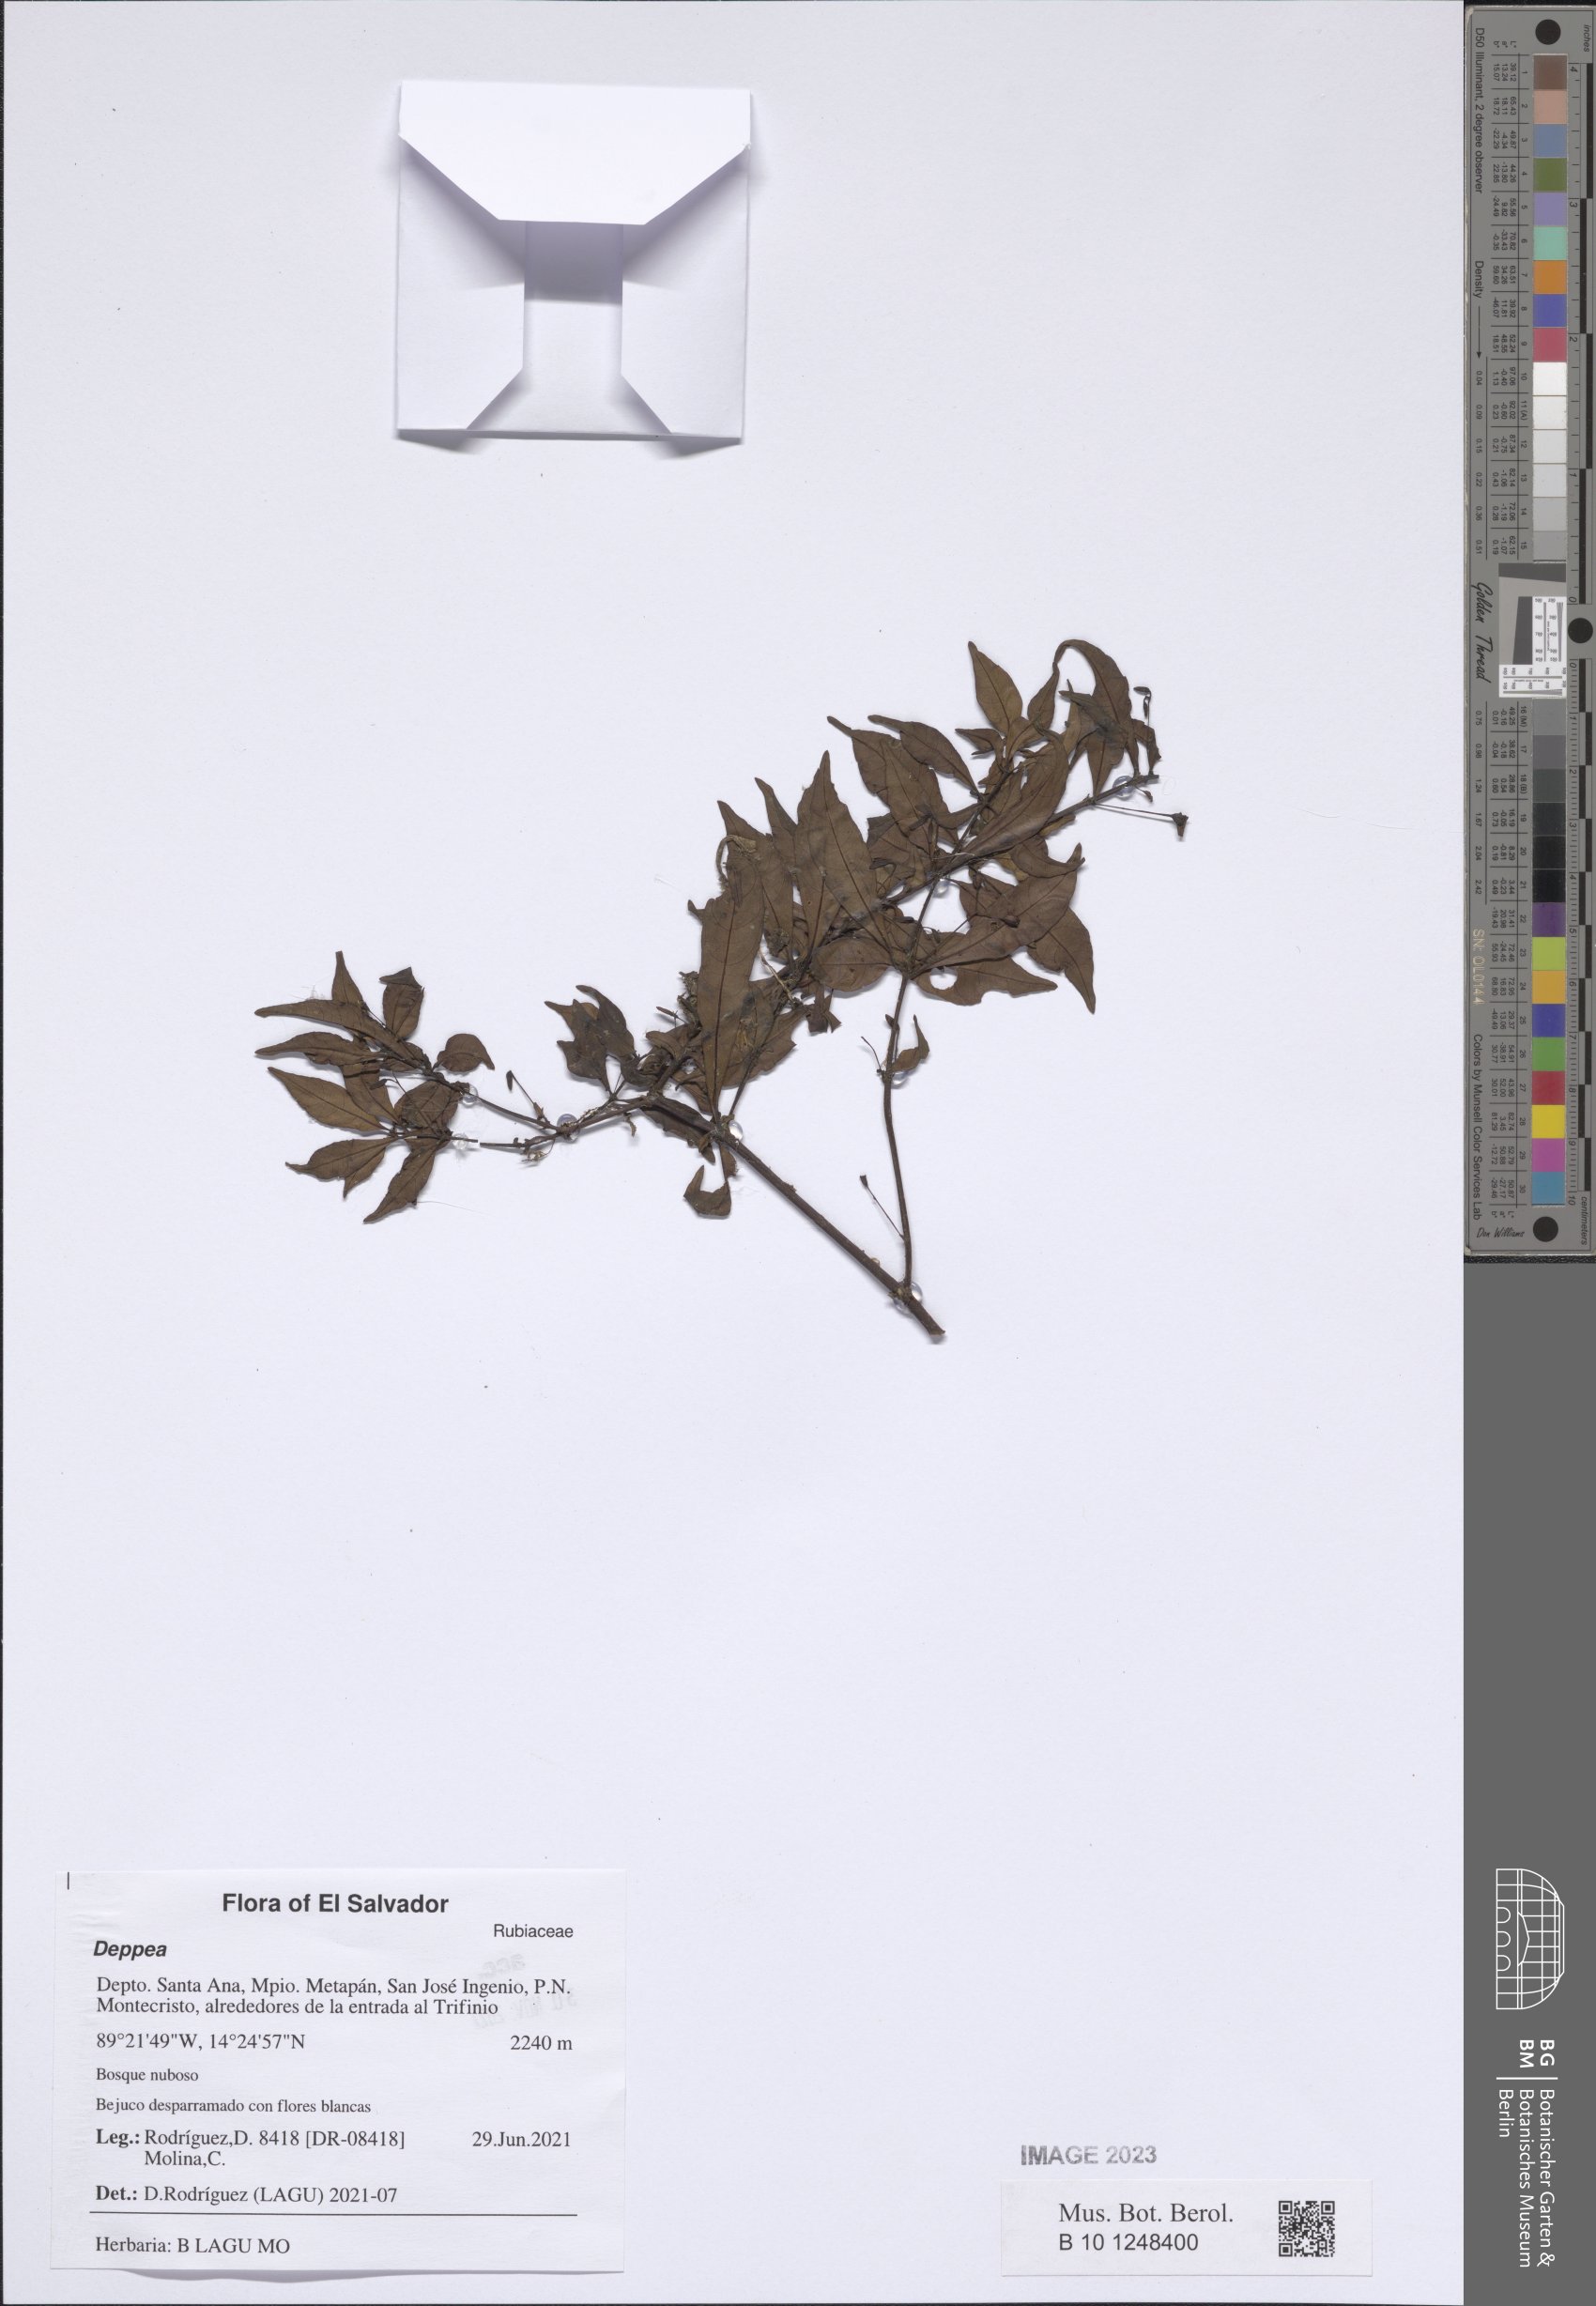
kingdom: Plantae
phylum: Tracheophyta
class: Magnoliopsida
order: Gentianales
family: Rubiaceae
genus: Deppea
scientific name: Deppea
